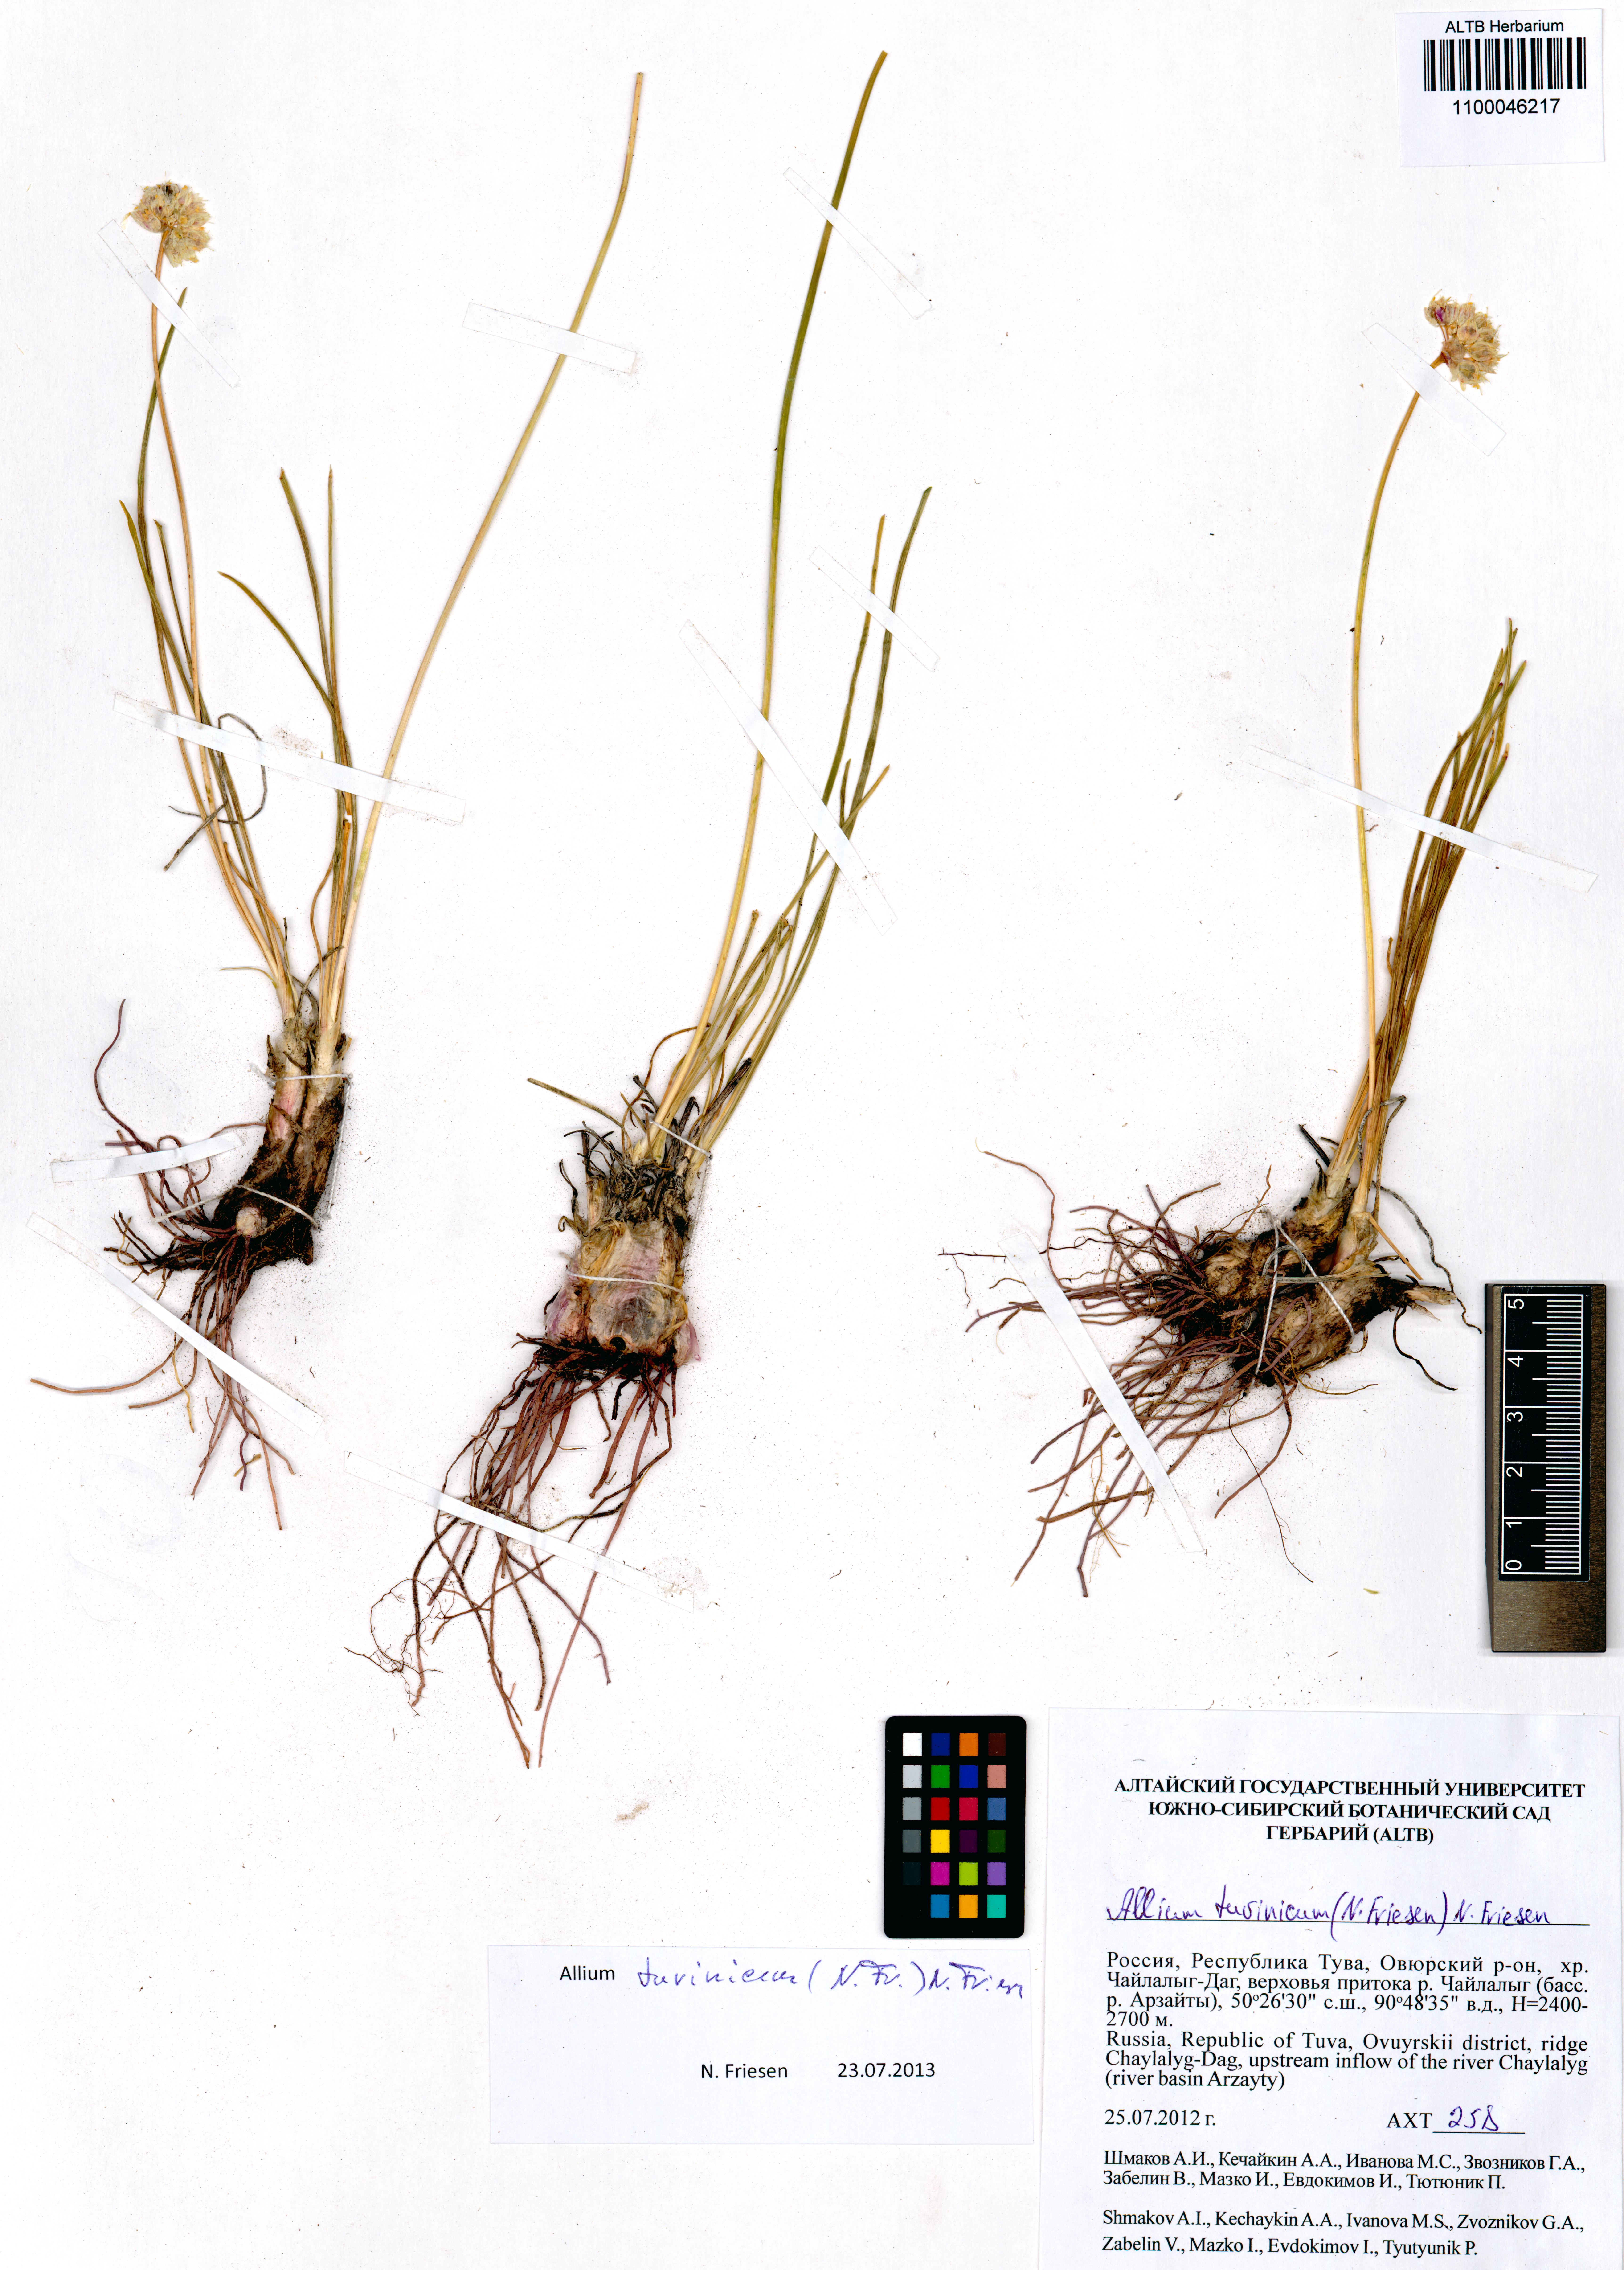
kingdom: Plantae
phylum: Tracheophyta
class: Liliopsida
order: Asparagales
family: Amaryllidaceae
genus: Allium
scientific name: Allium tuvinicum
